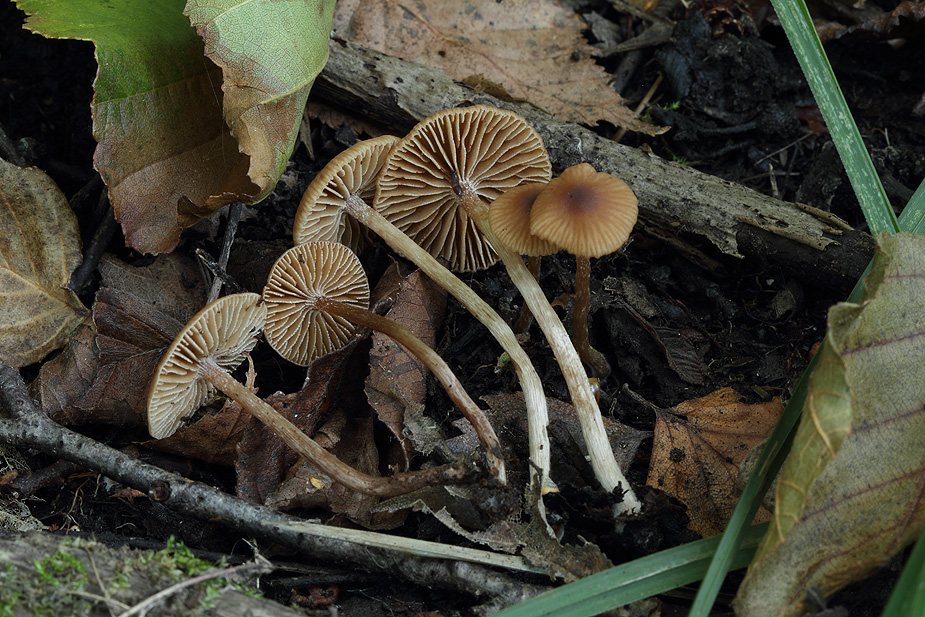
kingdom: Fungi
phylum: Basidiomycota
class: Agaricomycetes
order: Agaricales
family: Hymenogastraceae
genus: Naucoria
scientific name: Naucoria salicis
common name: pile-knaphat
